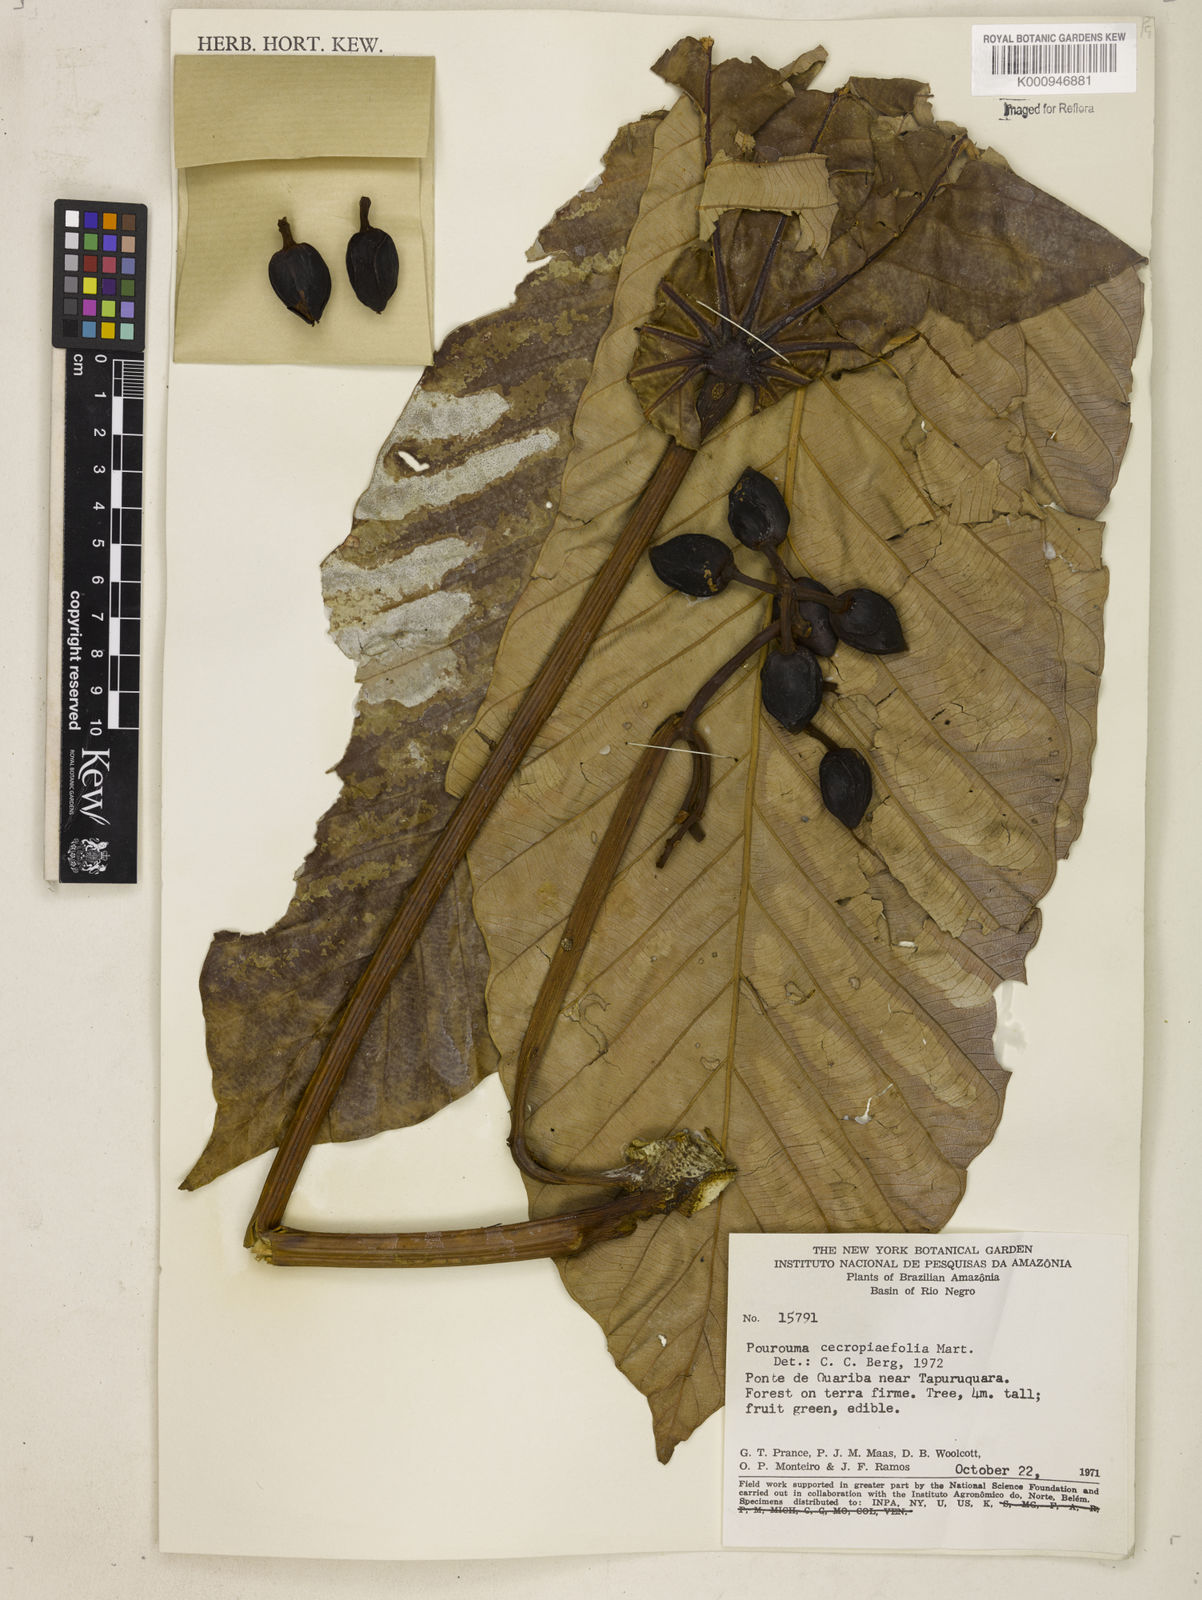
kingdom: Plantae
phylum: Tracheophyta
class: Magnoliopsida
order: Rosales
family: Urticaceae
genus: Pourouma
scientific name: Pourouma cecropiifolia
